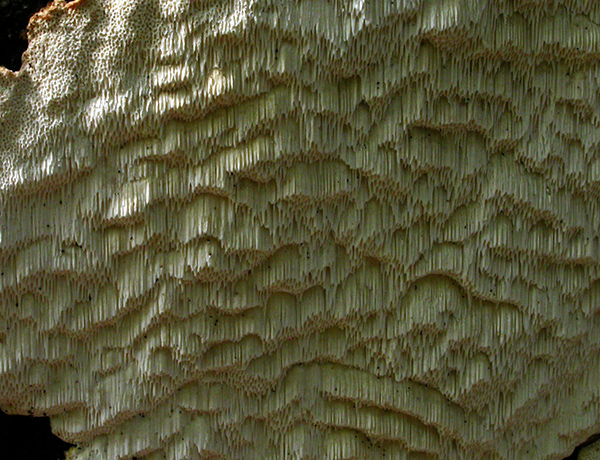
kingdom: Fungi
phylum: Basidiomycota
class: Agaricomycetes
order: Polyporales
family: Fomitopsidaceae
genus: Neoantrodia
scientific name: Neoantrodia serialis
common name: række-sejporesvamp
